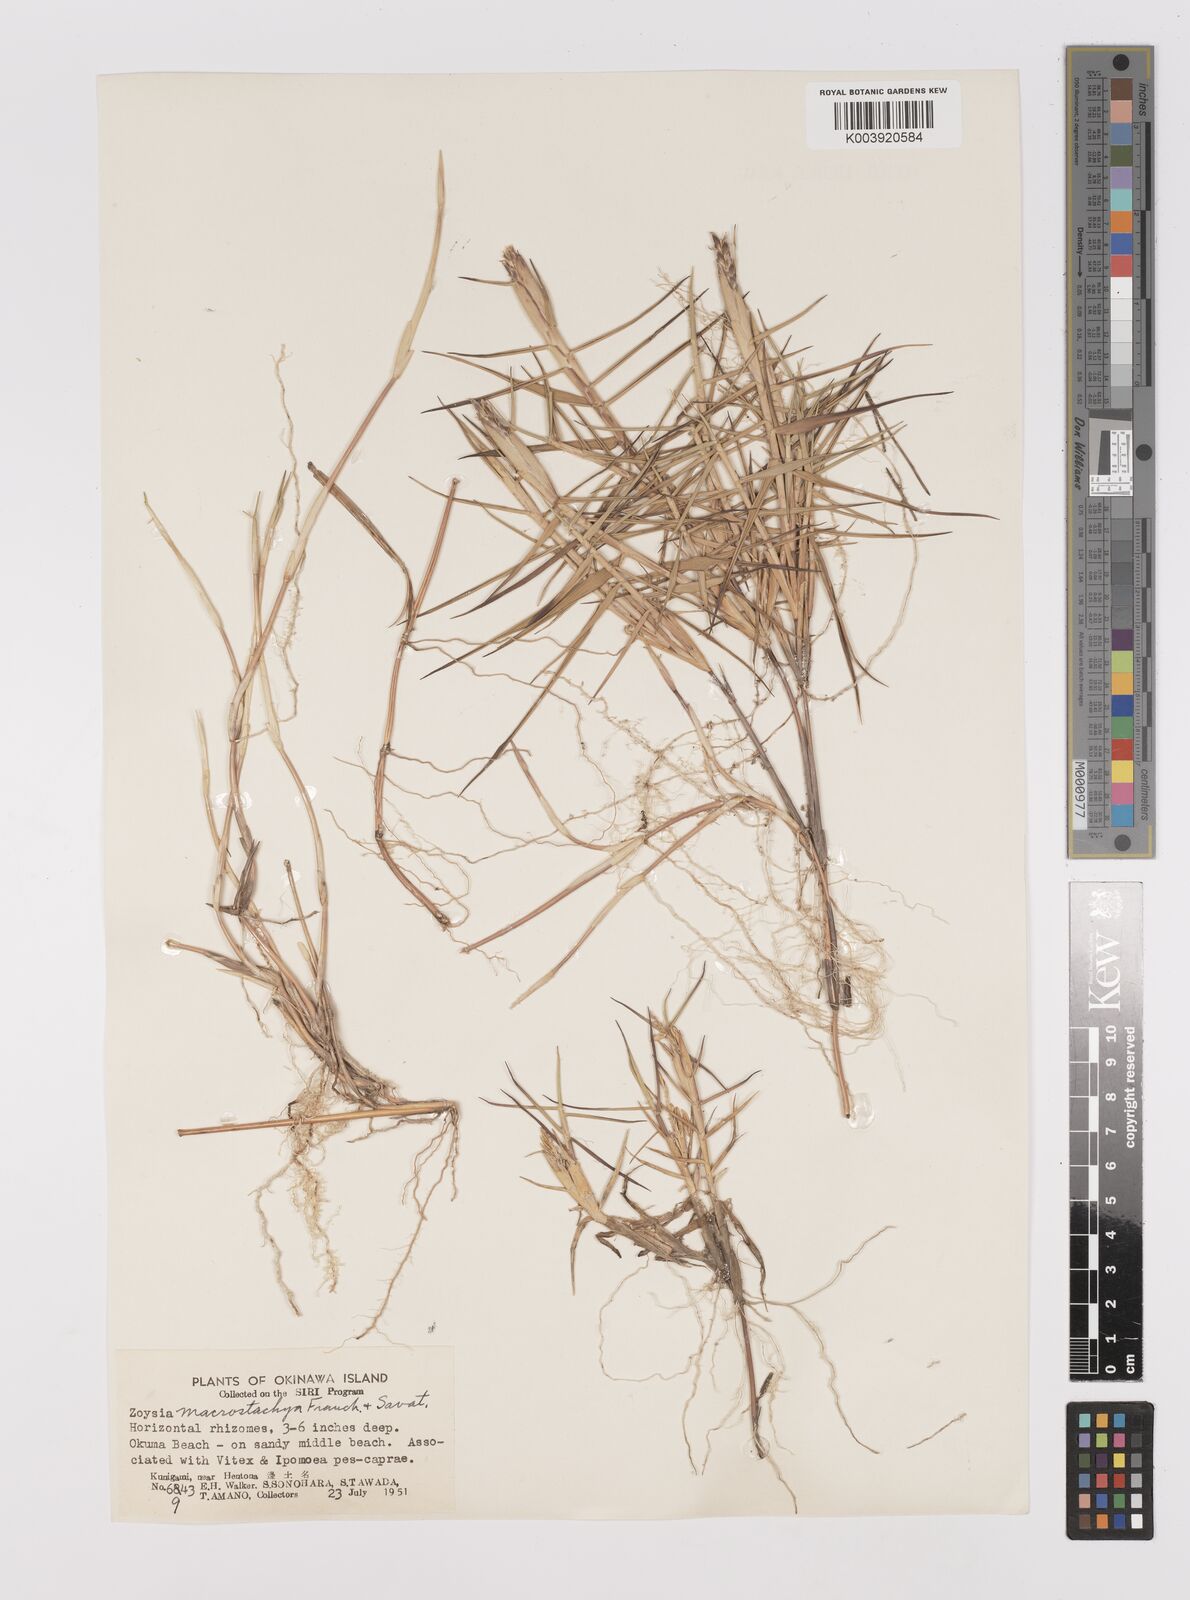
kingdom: Plantae
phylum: Tracheophyta
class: Liliopsida
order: Poales
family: Poaceae
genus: Zoysia
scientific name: Zoysia macrostachya
